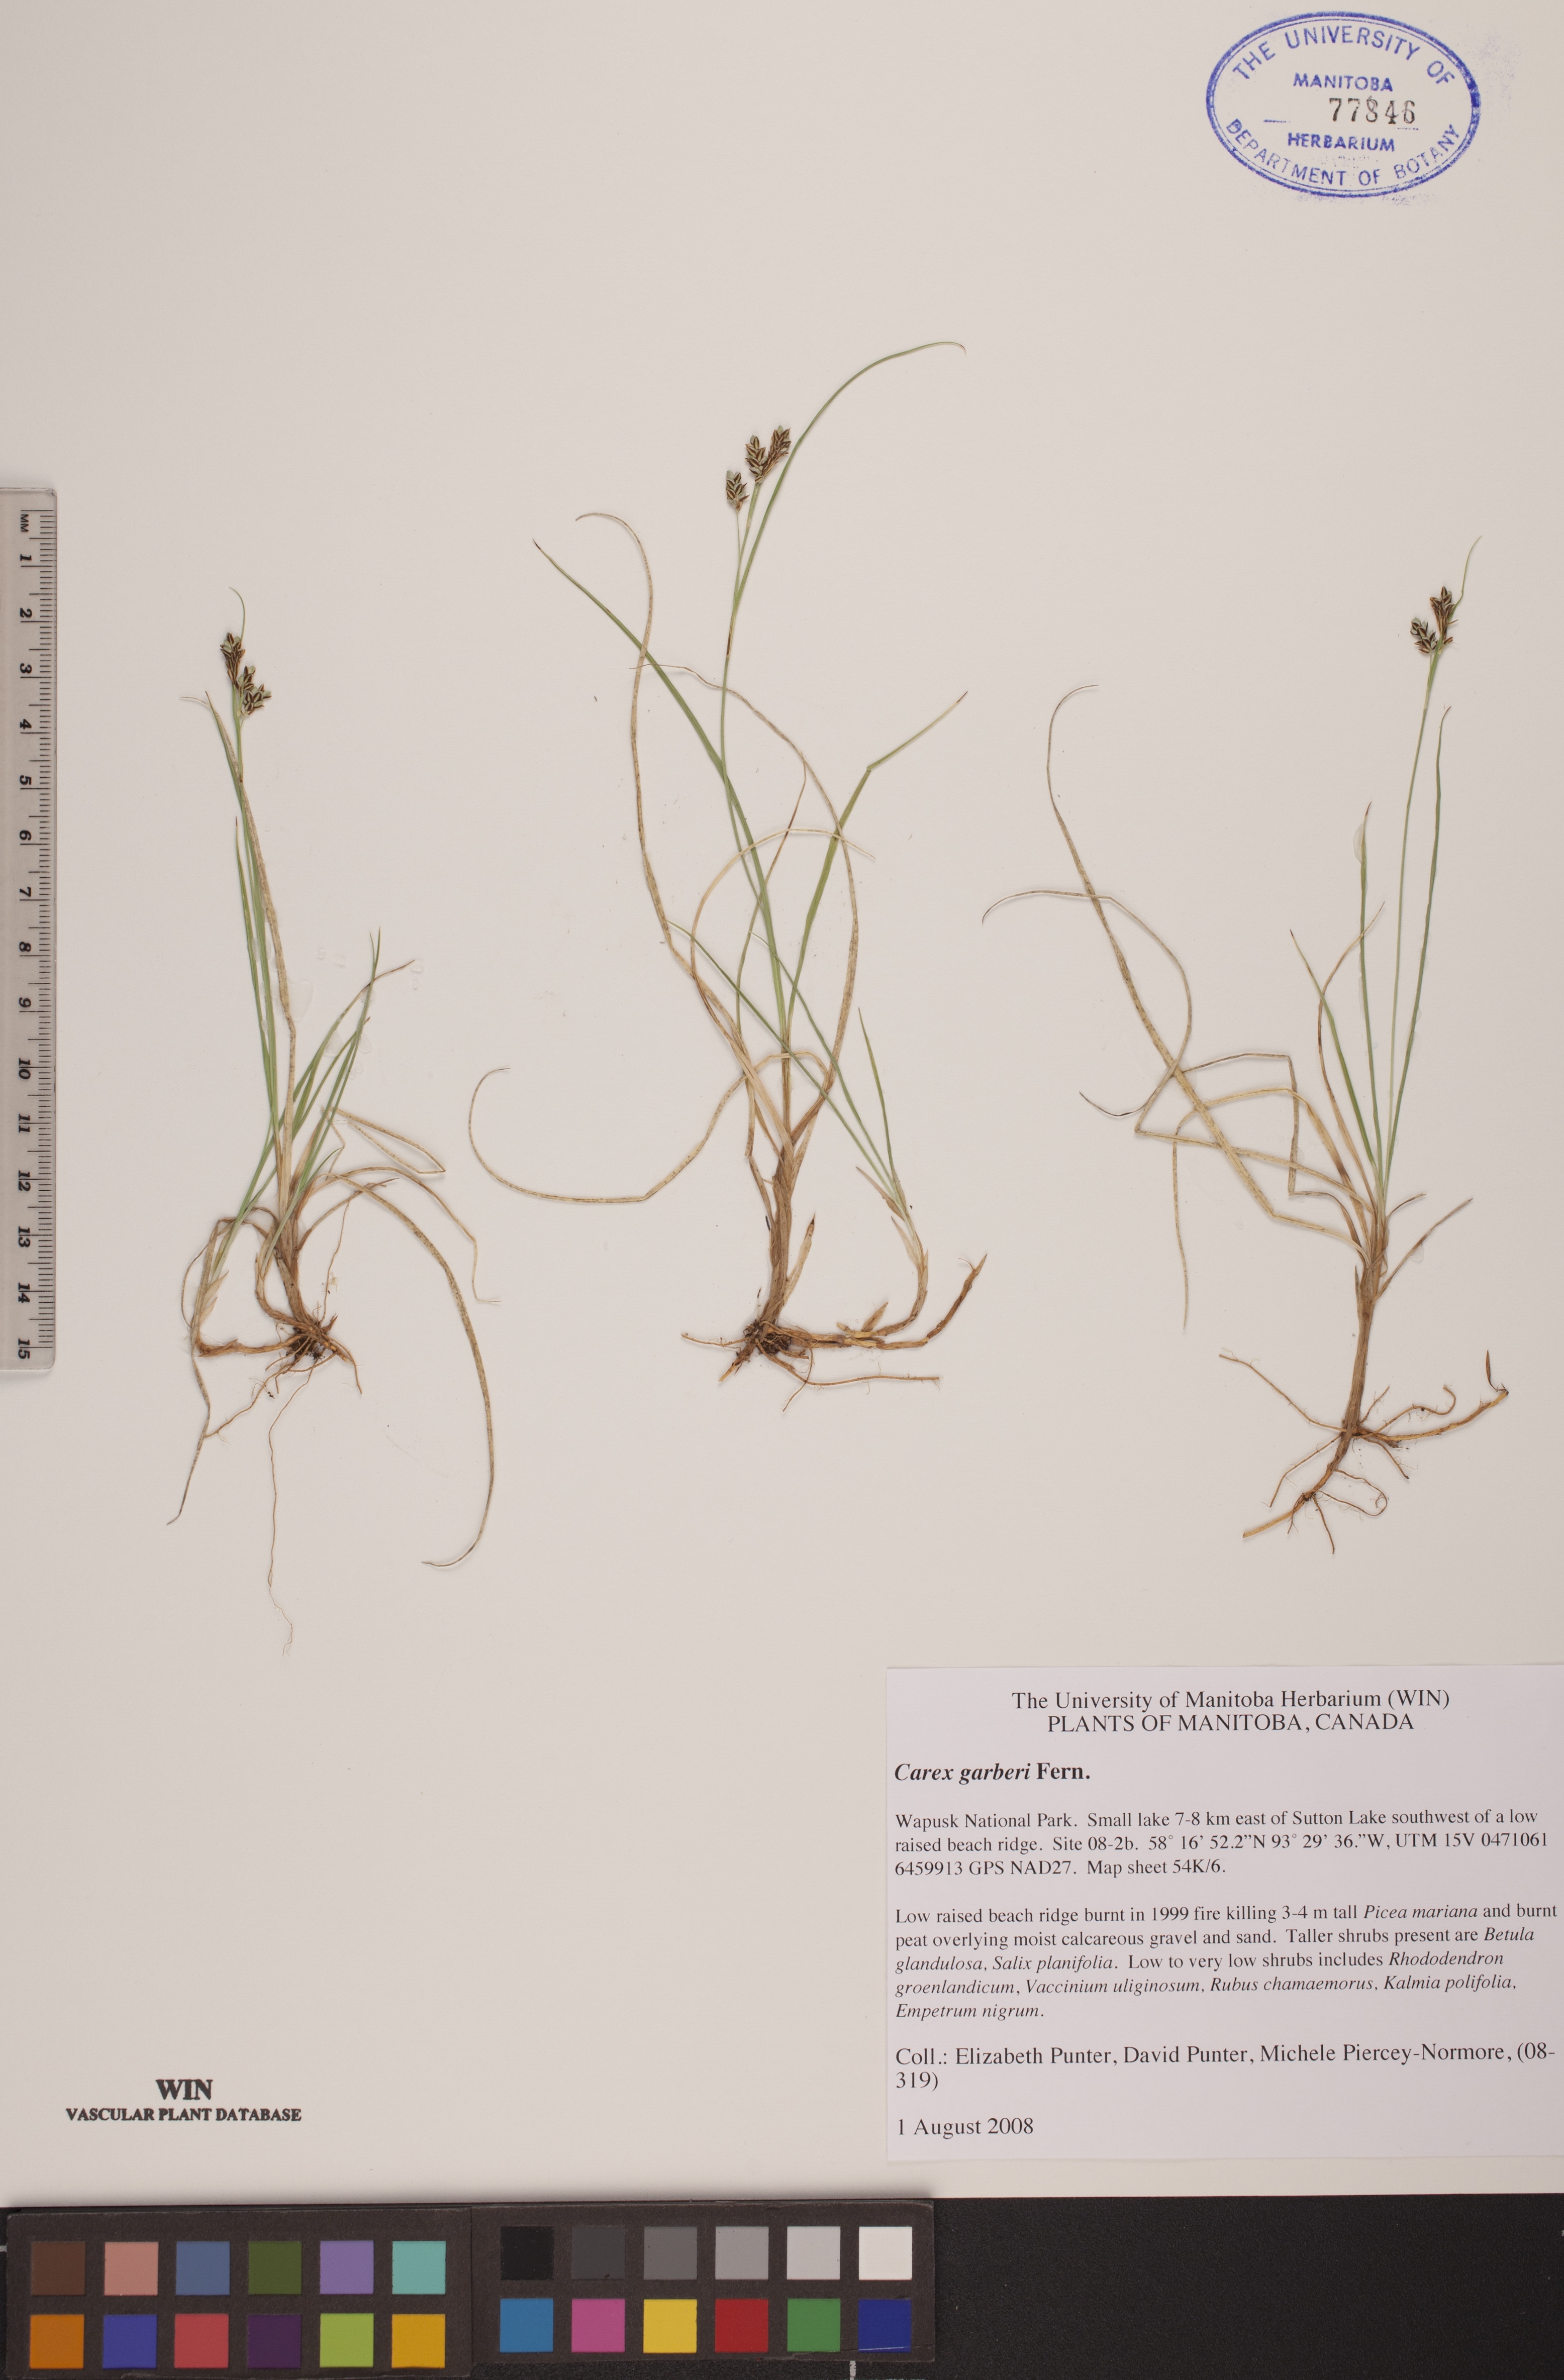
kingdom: Plantae
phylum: Tracheophyta
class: Liliopsida
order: Poales
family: Cyperaceae
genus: Carex
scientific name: Carex garberi
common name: Elk sedge
